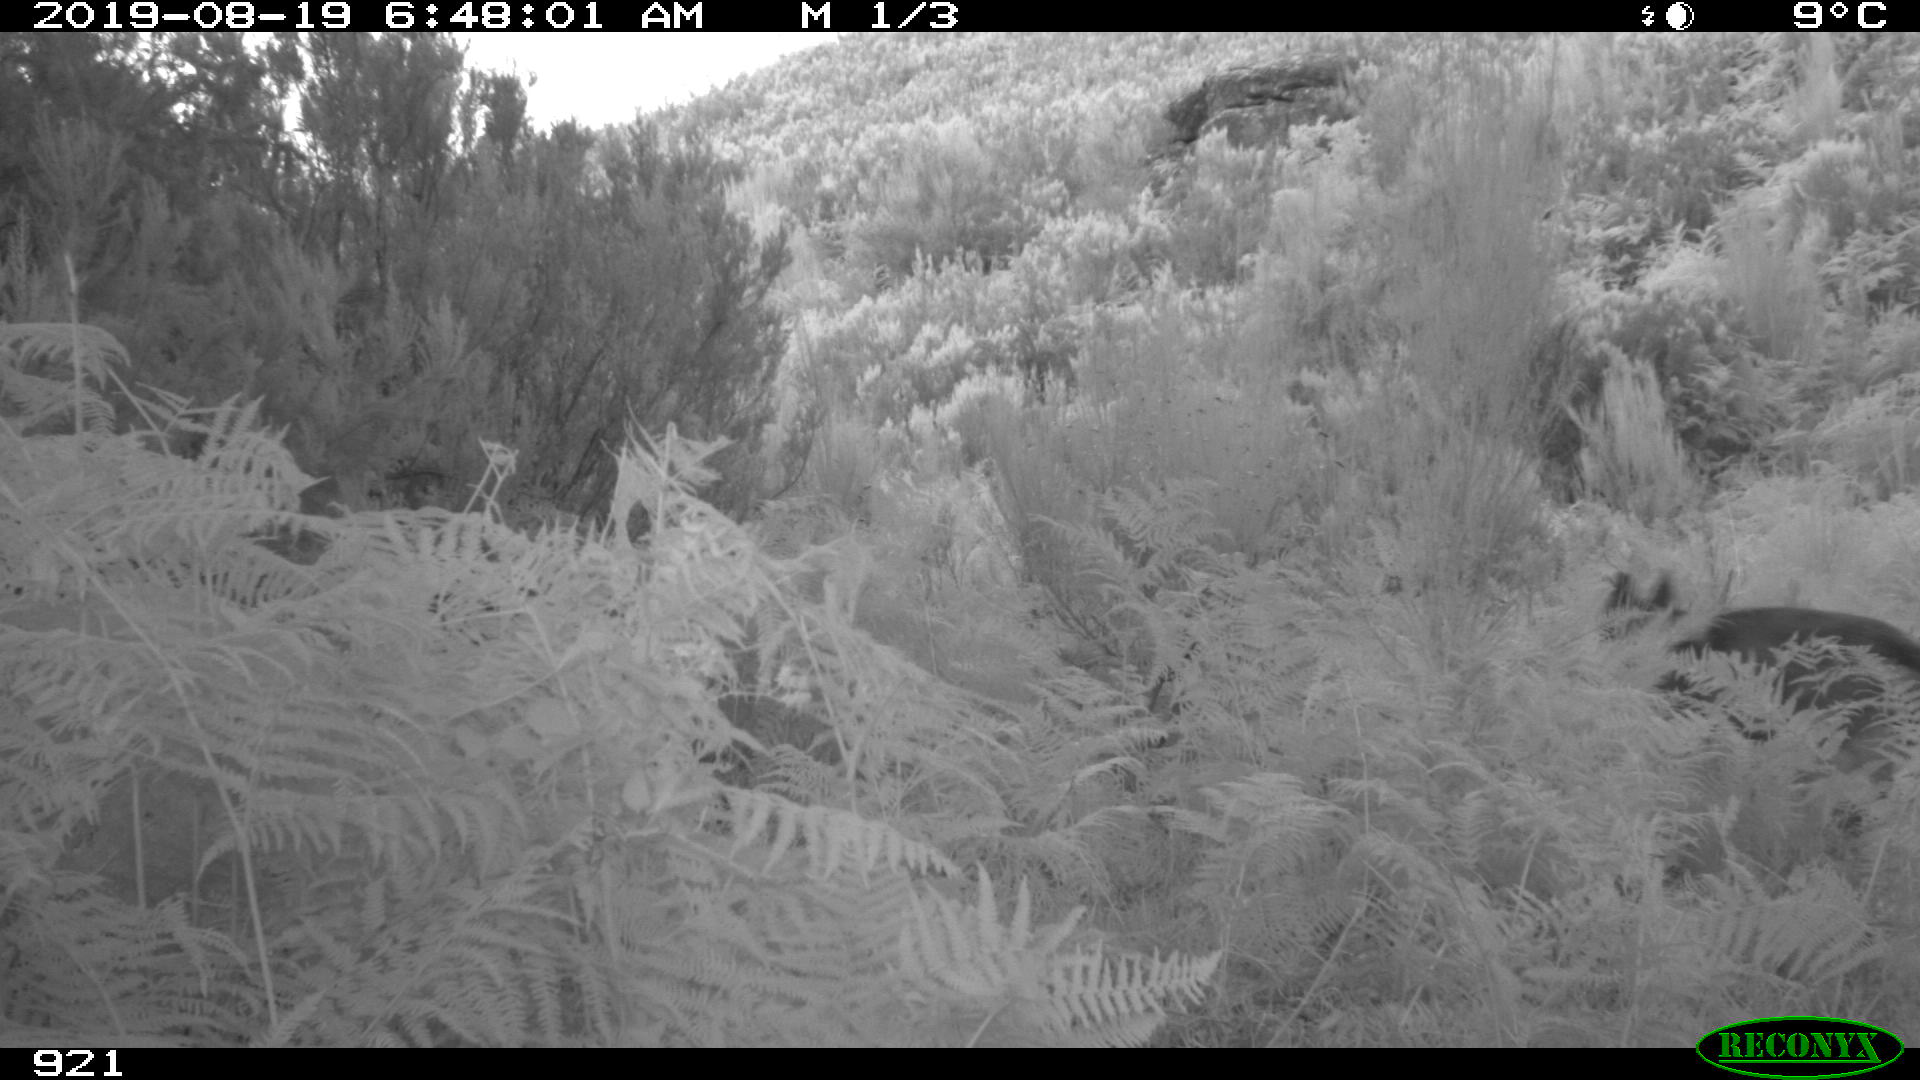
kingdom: Animalia
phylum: Chordata
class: Mammalia
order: Carnivora
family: Canidae
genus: Canis
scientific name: Canis lupus
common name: Gray wolf
